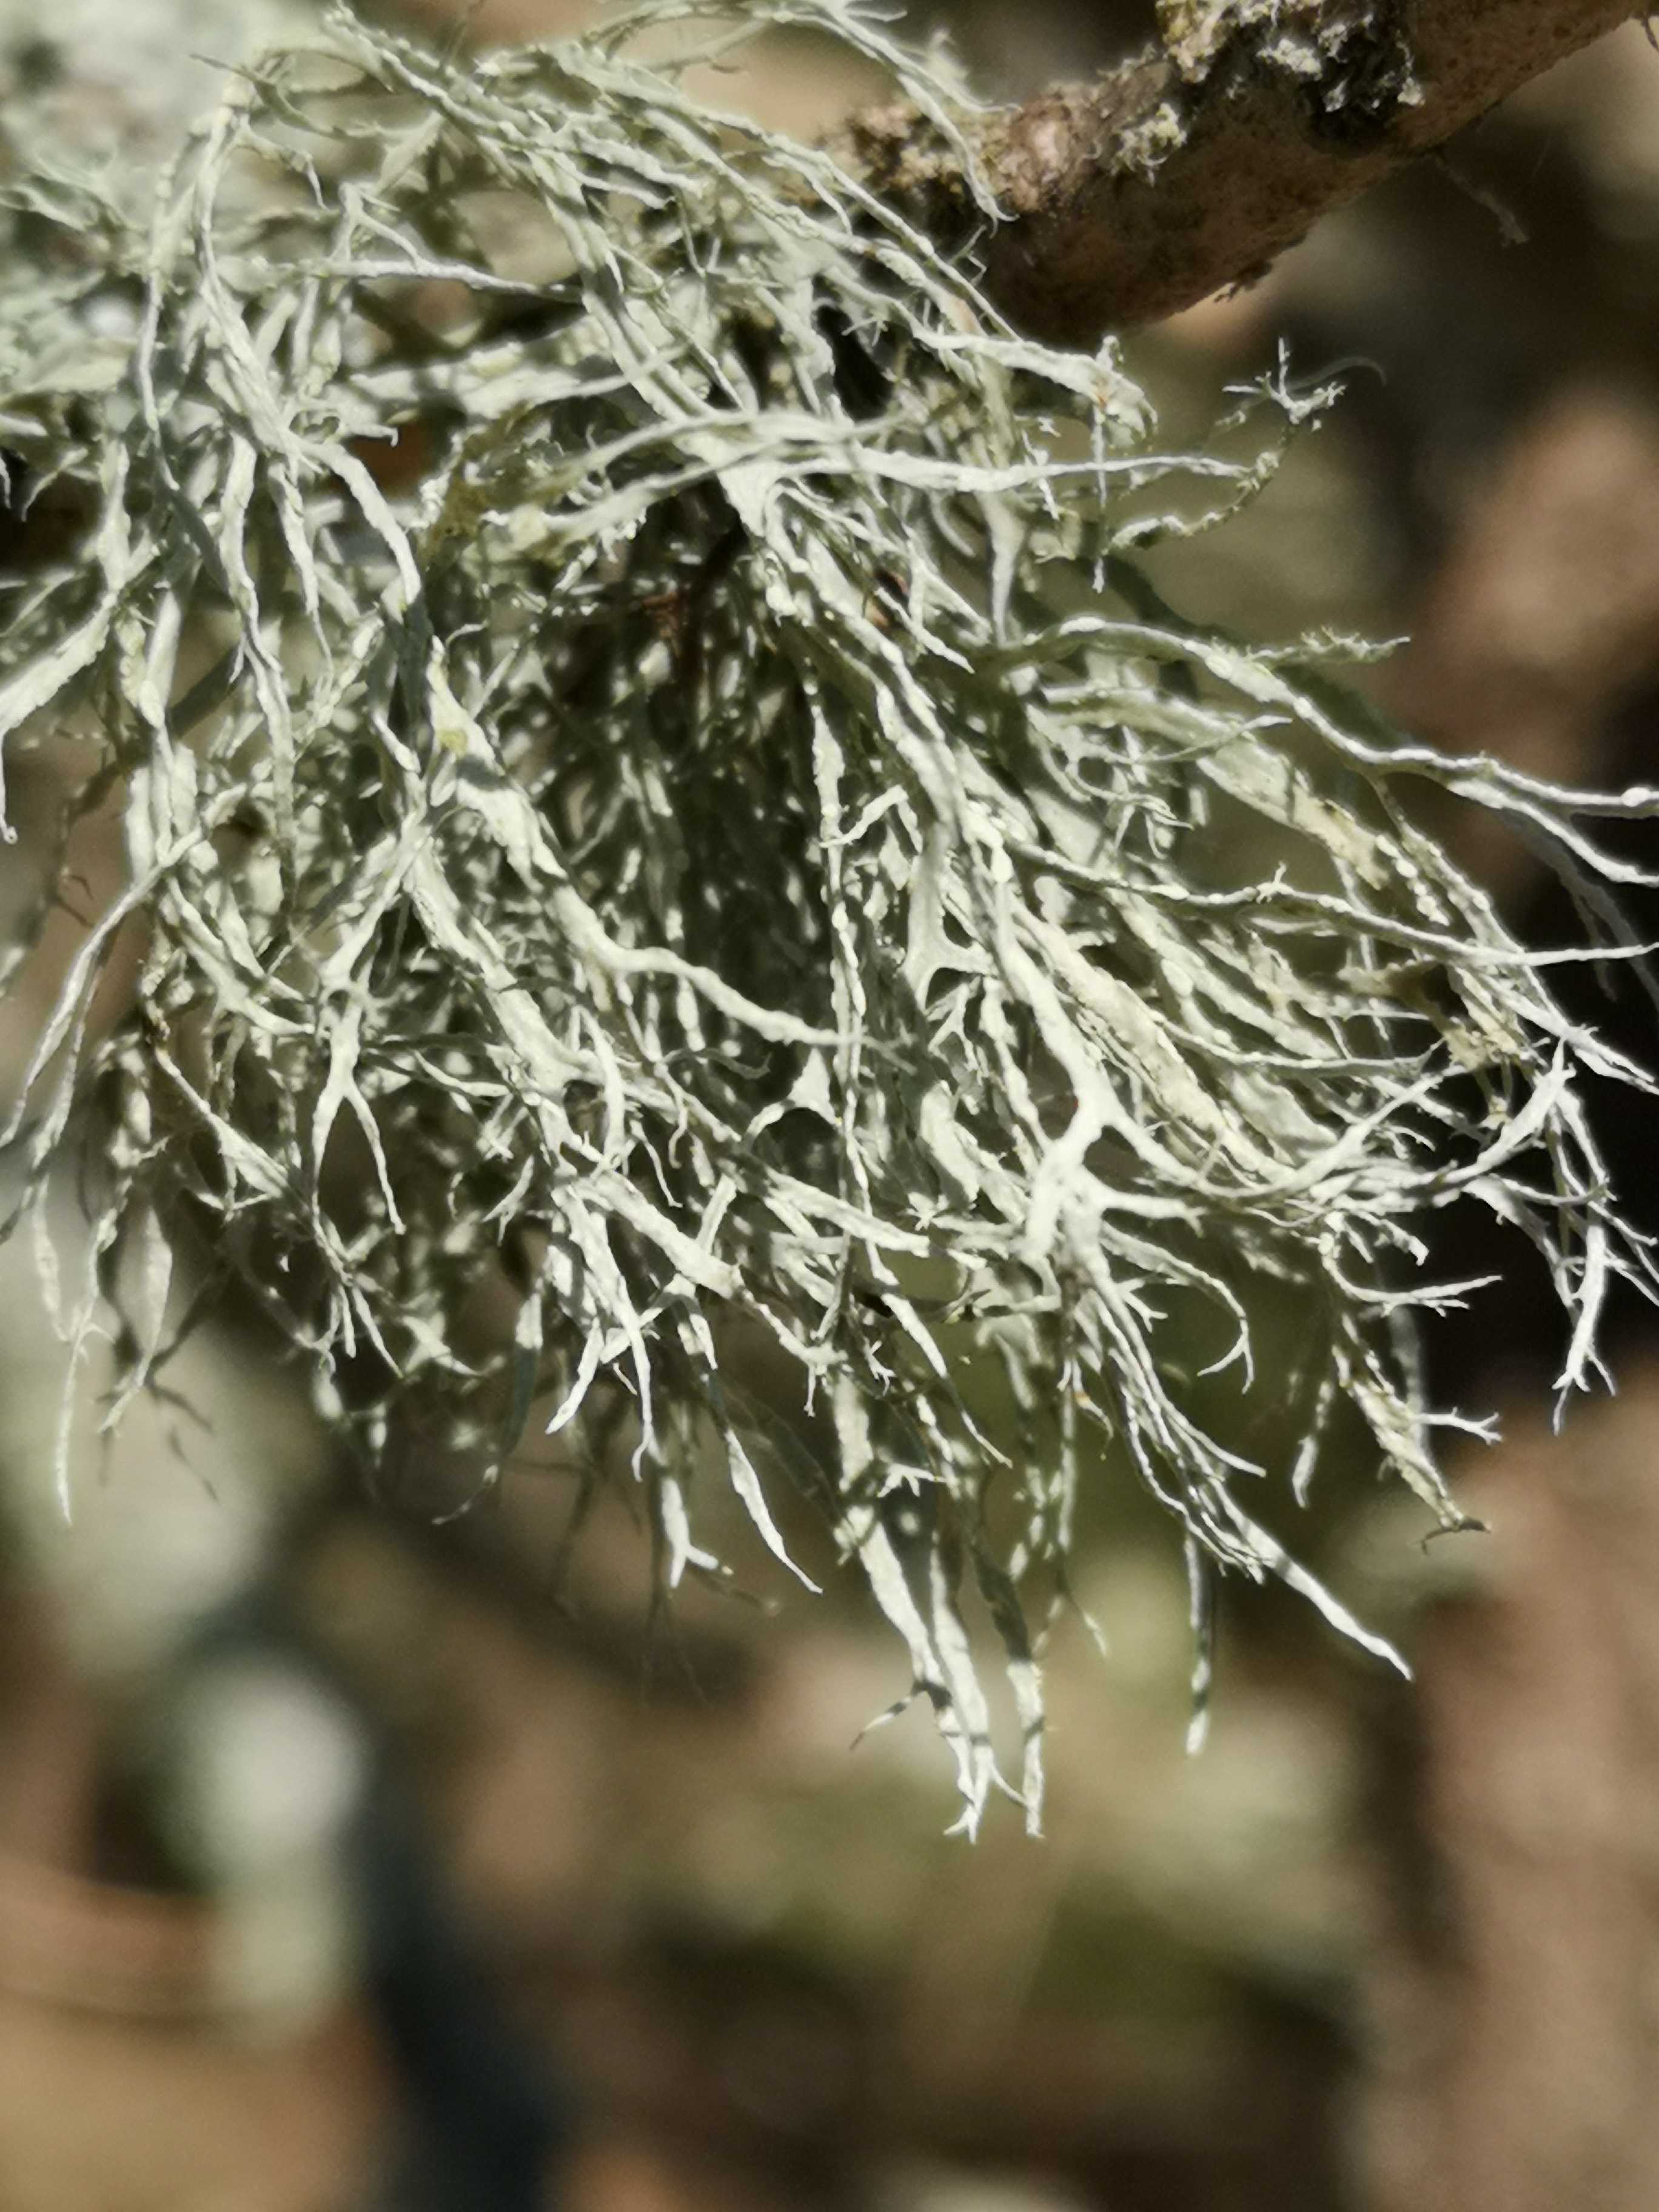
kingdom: Fungi
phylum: Ascomycota
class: Lecanoromycetes
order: Lecanorales
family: Ramalinaceae
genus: Ramalina
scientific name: Ramalina farinacea
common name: melet grenlav
